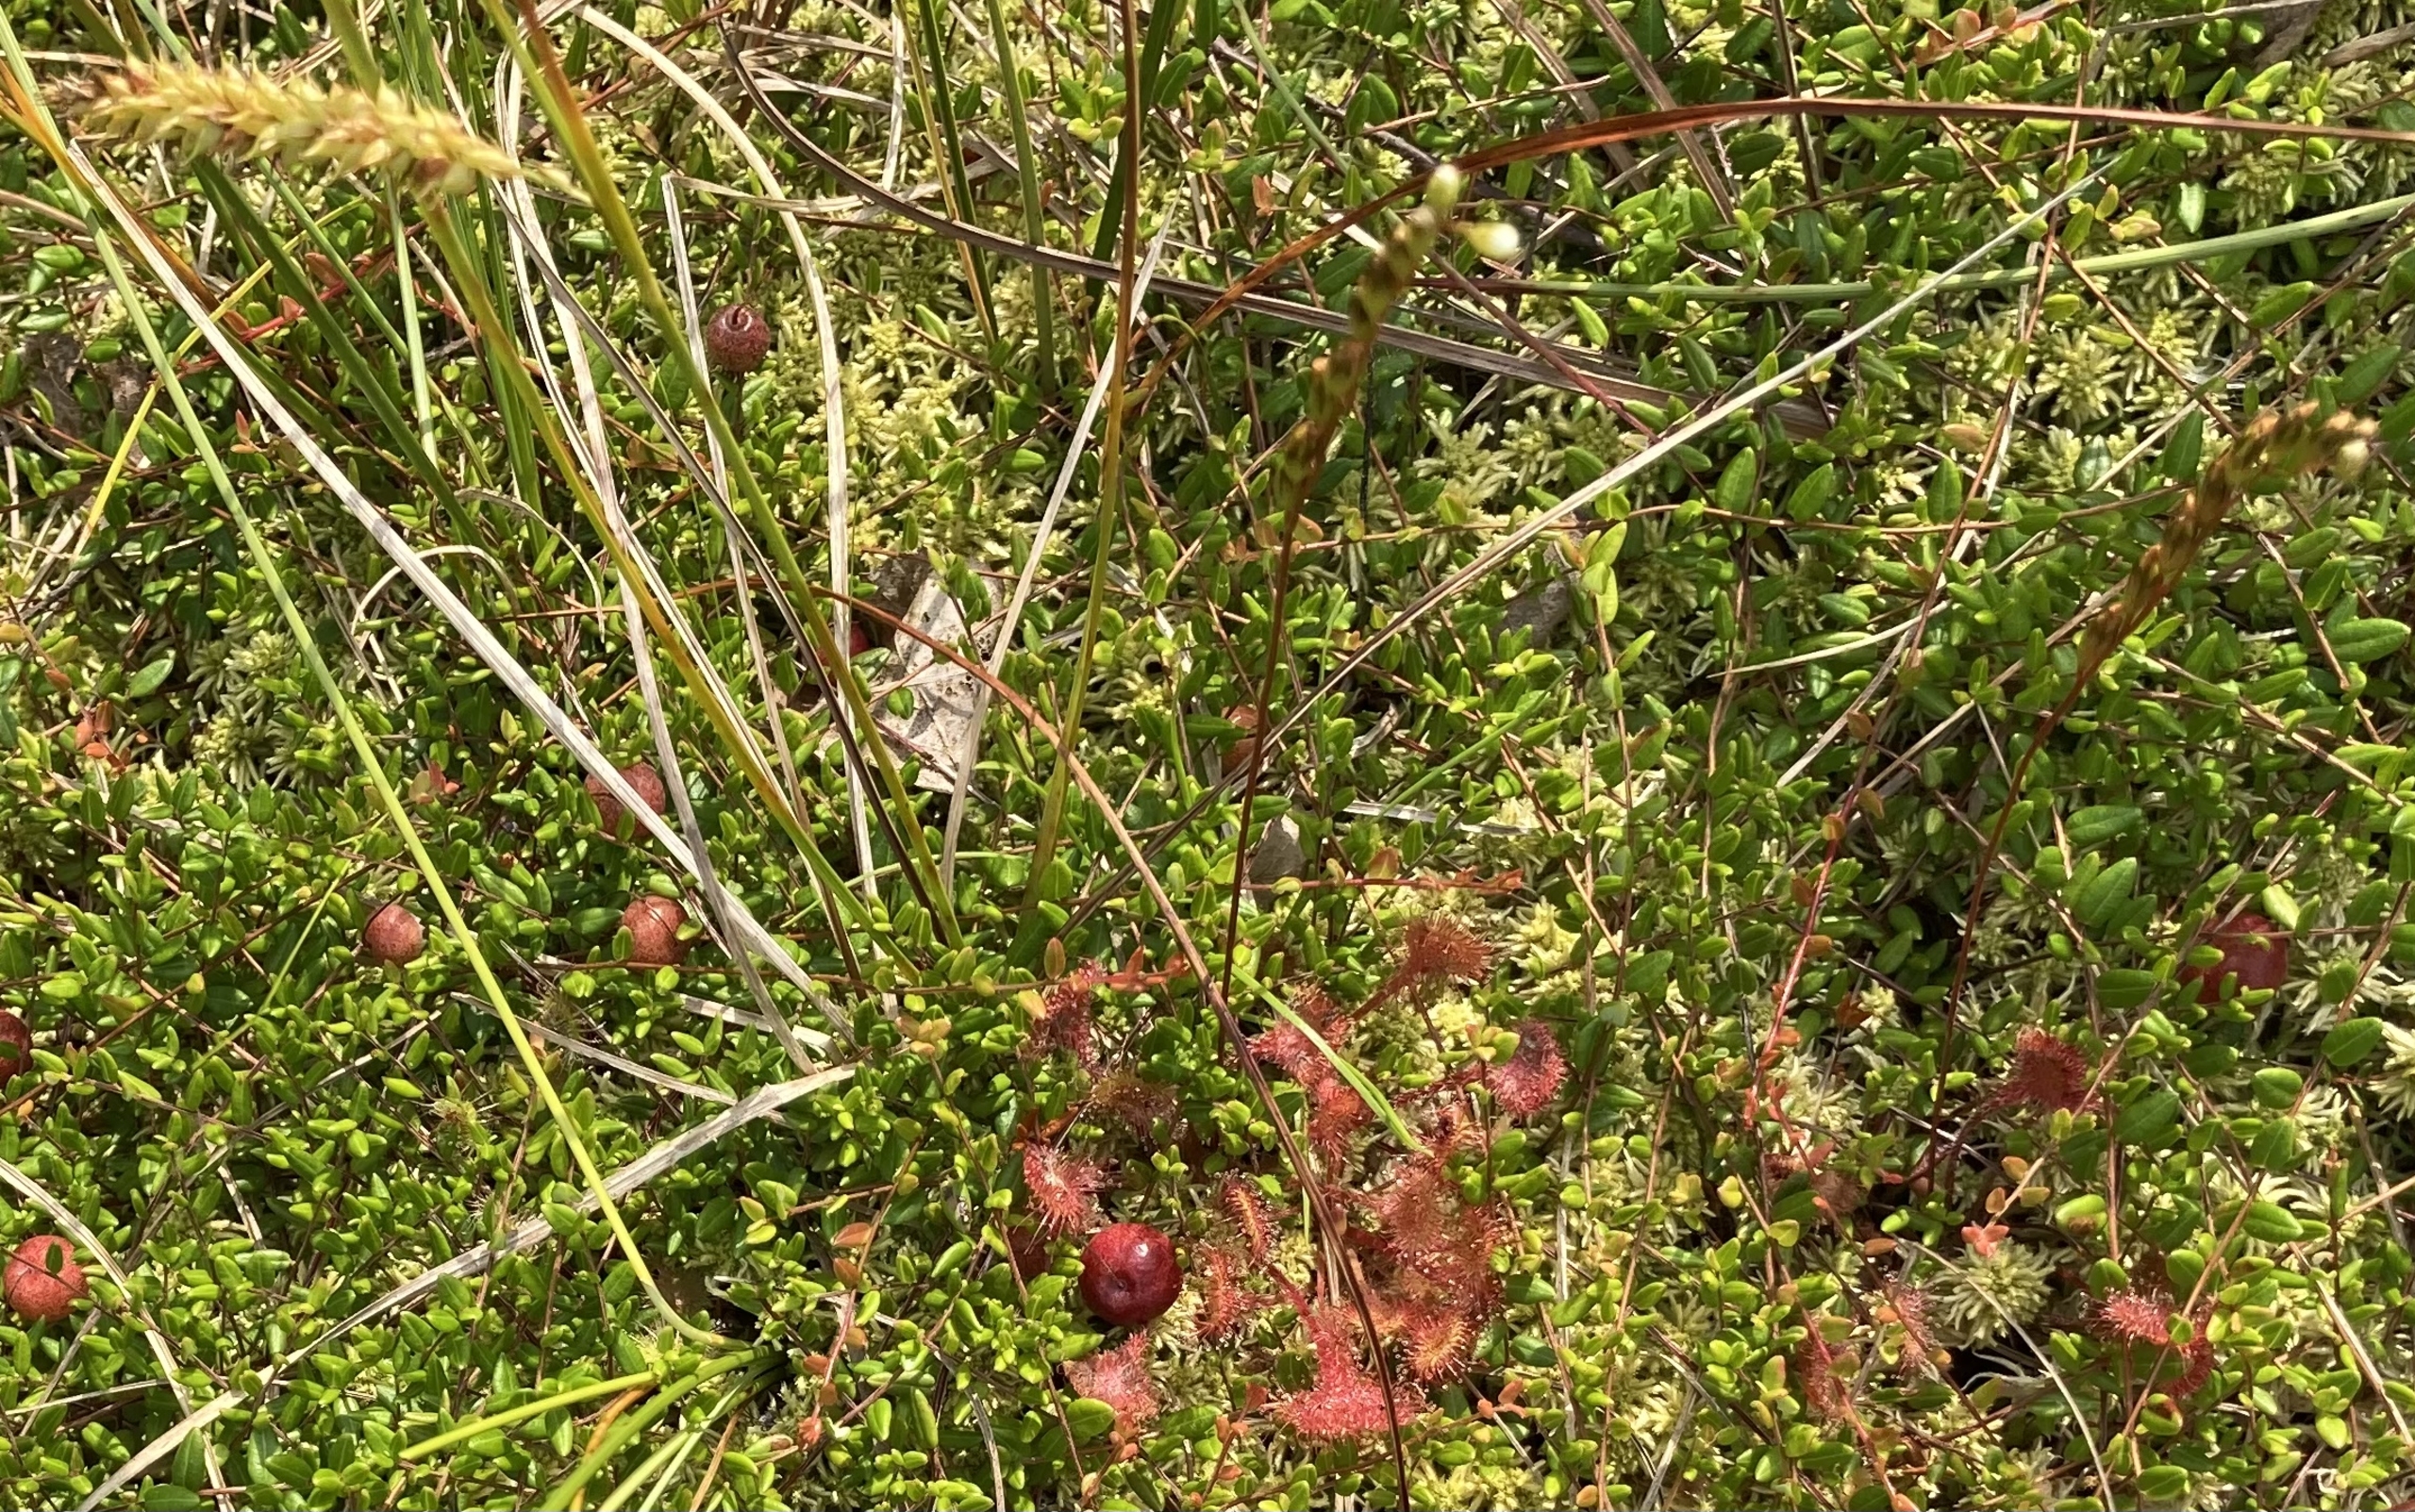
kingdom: Plantae
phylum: Tracheophyta
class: Magnoliopsida
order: Ericales
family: Ericaceae
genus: Vaccinium
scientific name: Vaccinium oxycoccos
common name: Tranebær
